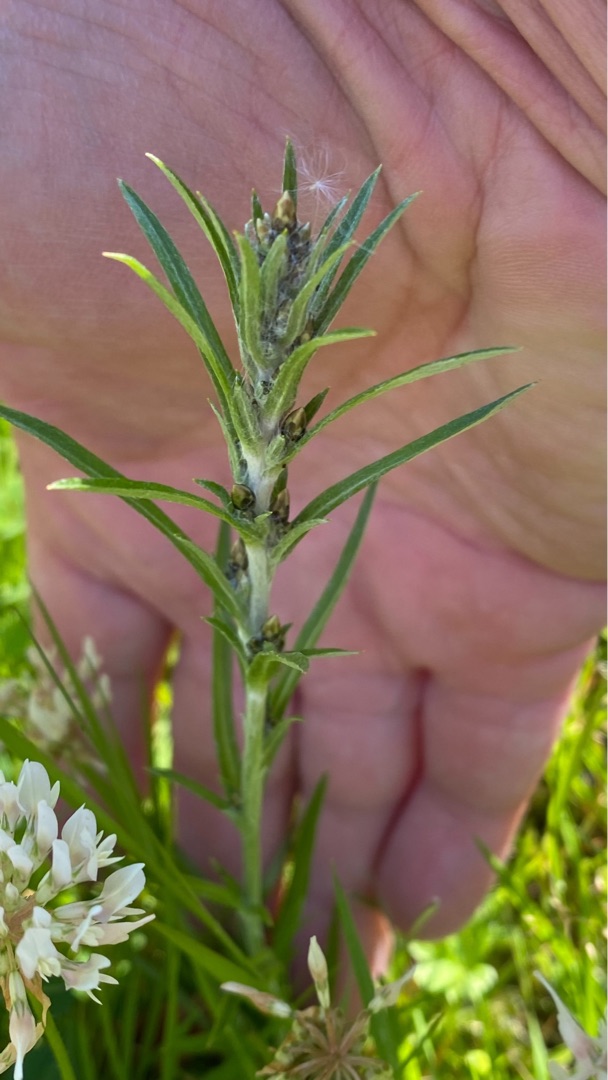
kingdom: Plantae
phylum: Tracheophyta
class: Magnoliopsida
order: Asterales
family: Asteraceae
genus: Omalotheca
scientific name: Omalotheca sylvatica
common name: Rank evighedsblomst
